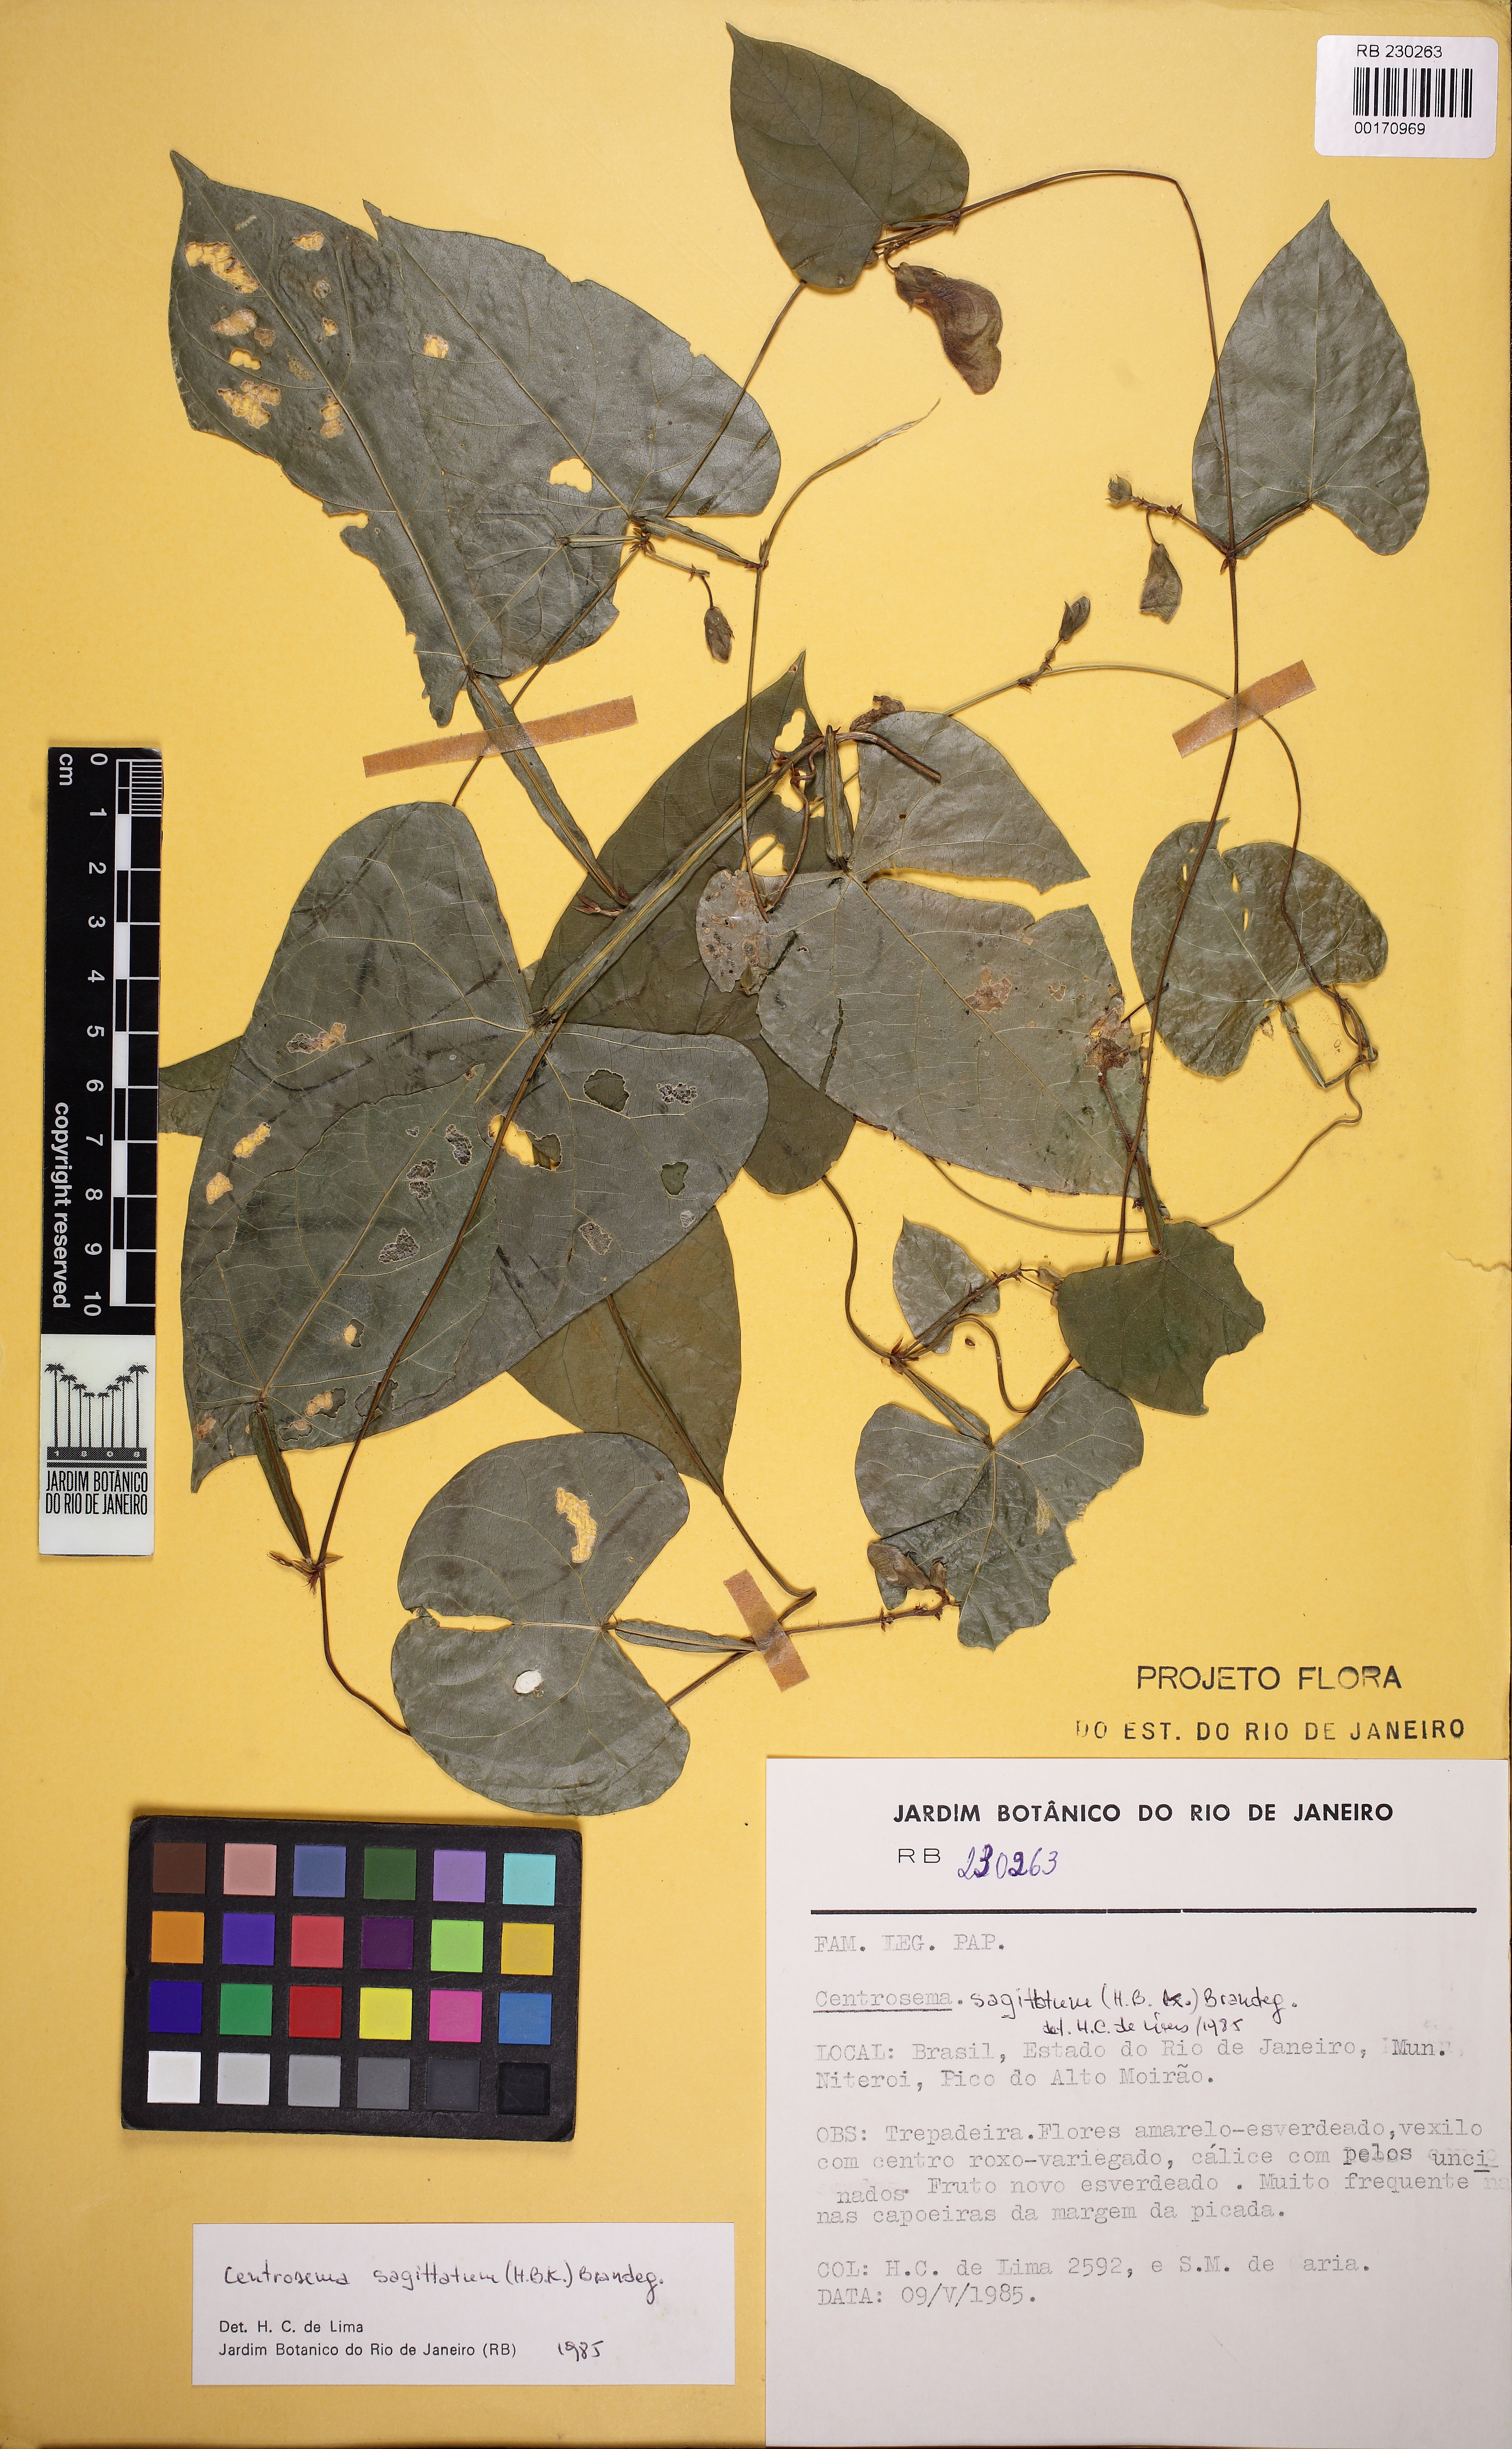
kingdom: Plantae
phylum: Tracheophyta
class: Magnoliopsida
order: Fabales
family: Fabaceae
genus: Centrosema
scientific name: Centrosema sagittatum
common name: Arrowleaf butterfly pea
